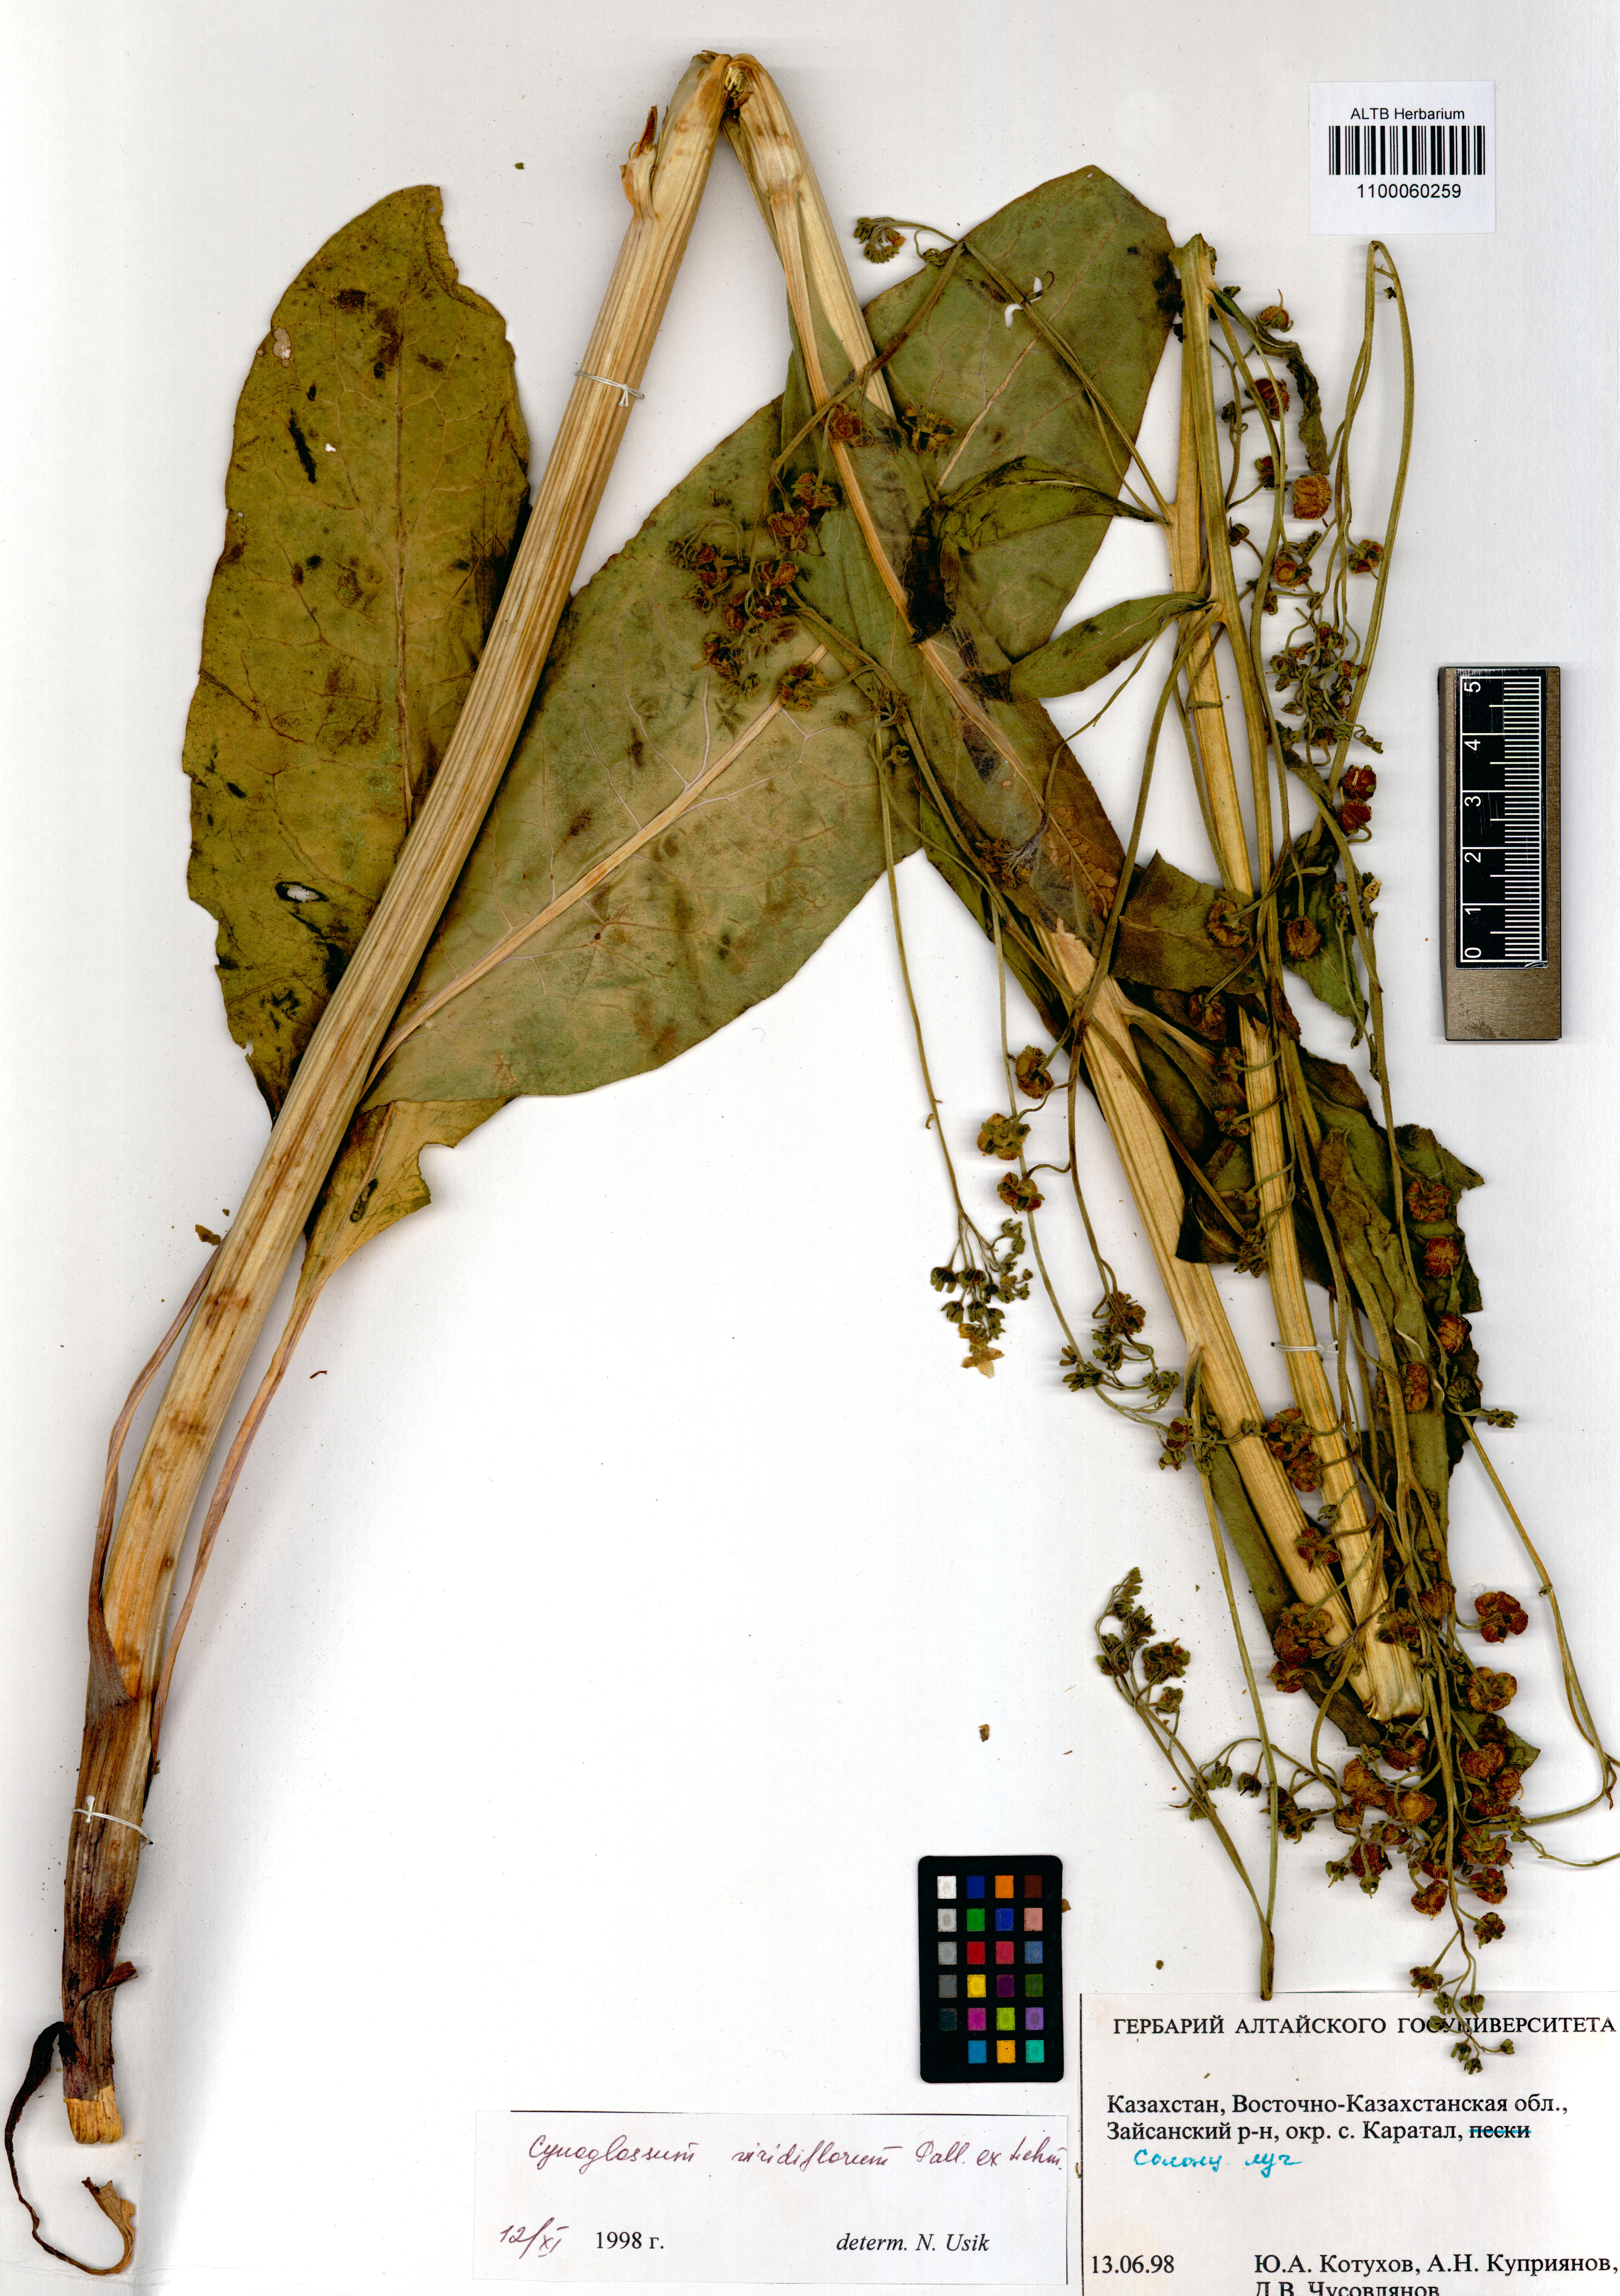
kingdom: Plantae
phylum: Tracheophyta
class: Magnoliopsida
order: Boraginales
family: Boraginaceae
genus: Cynoglossum
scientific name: Cynoglossum viridiflorum
